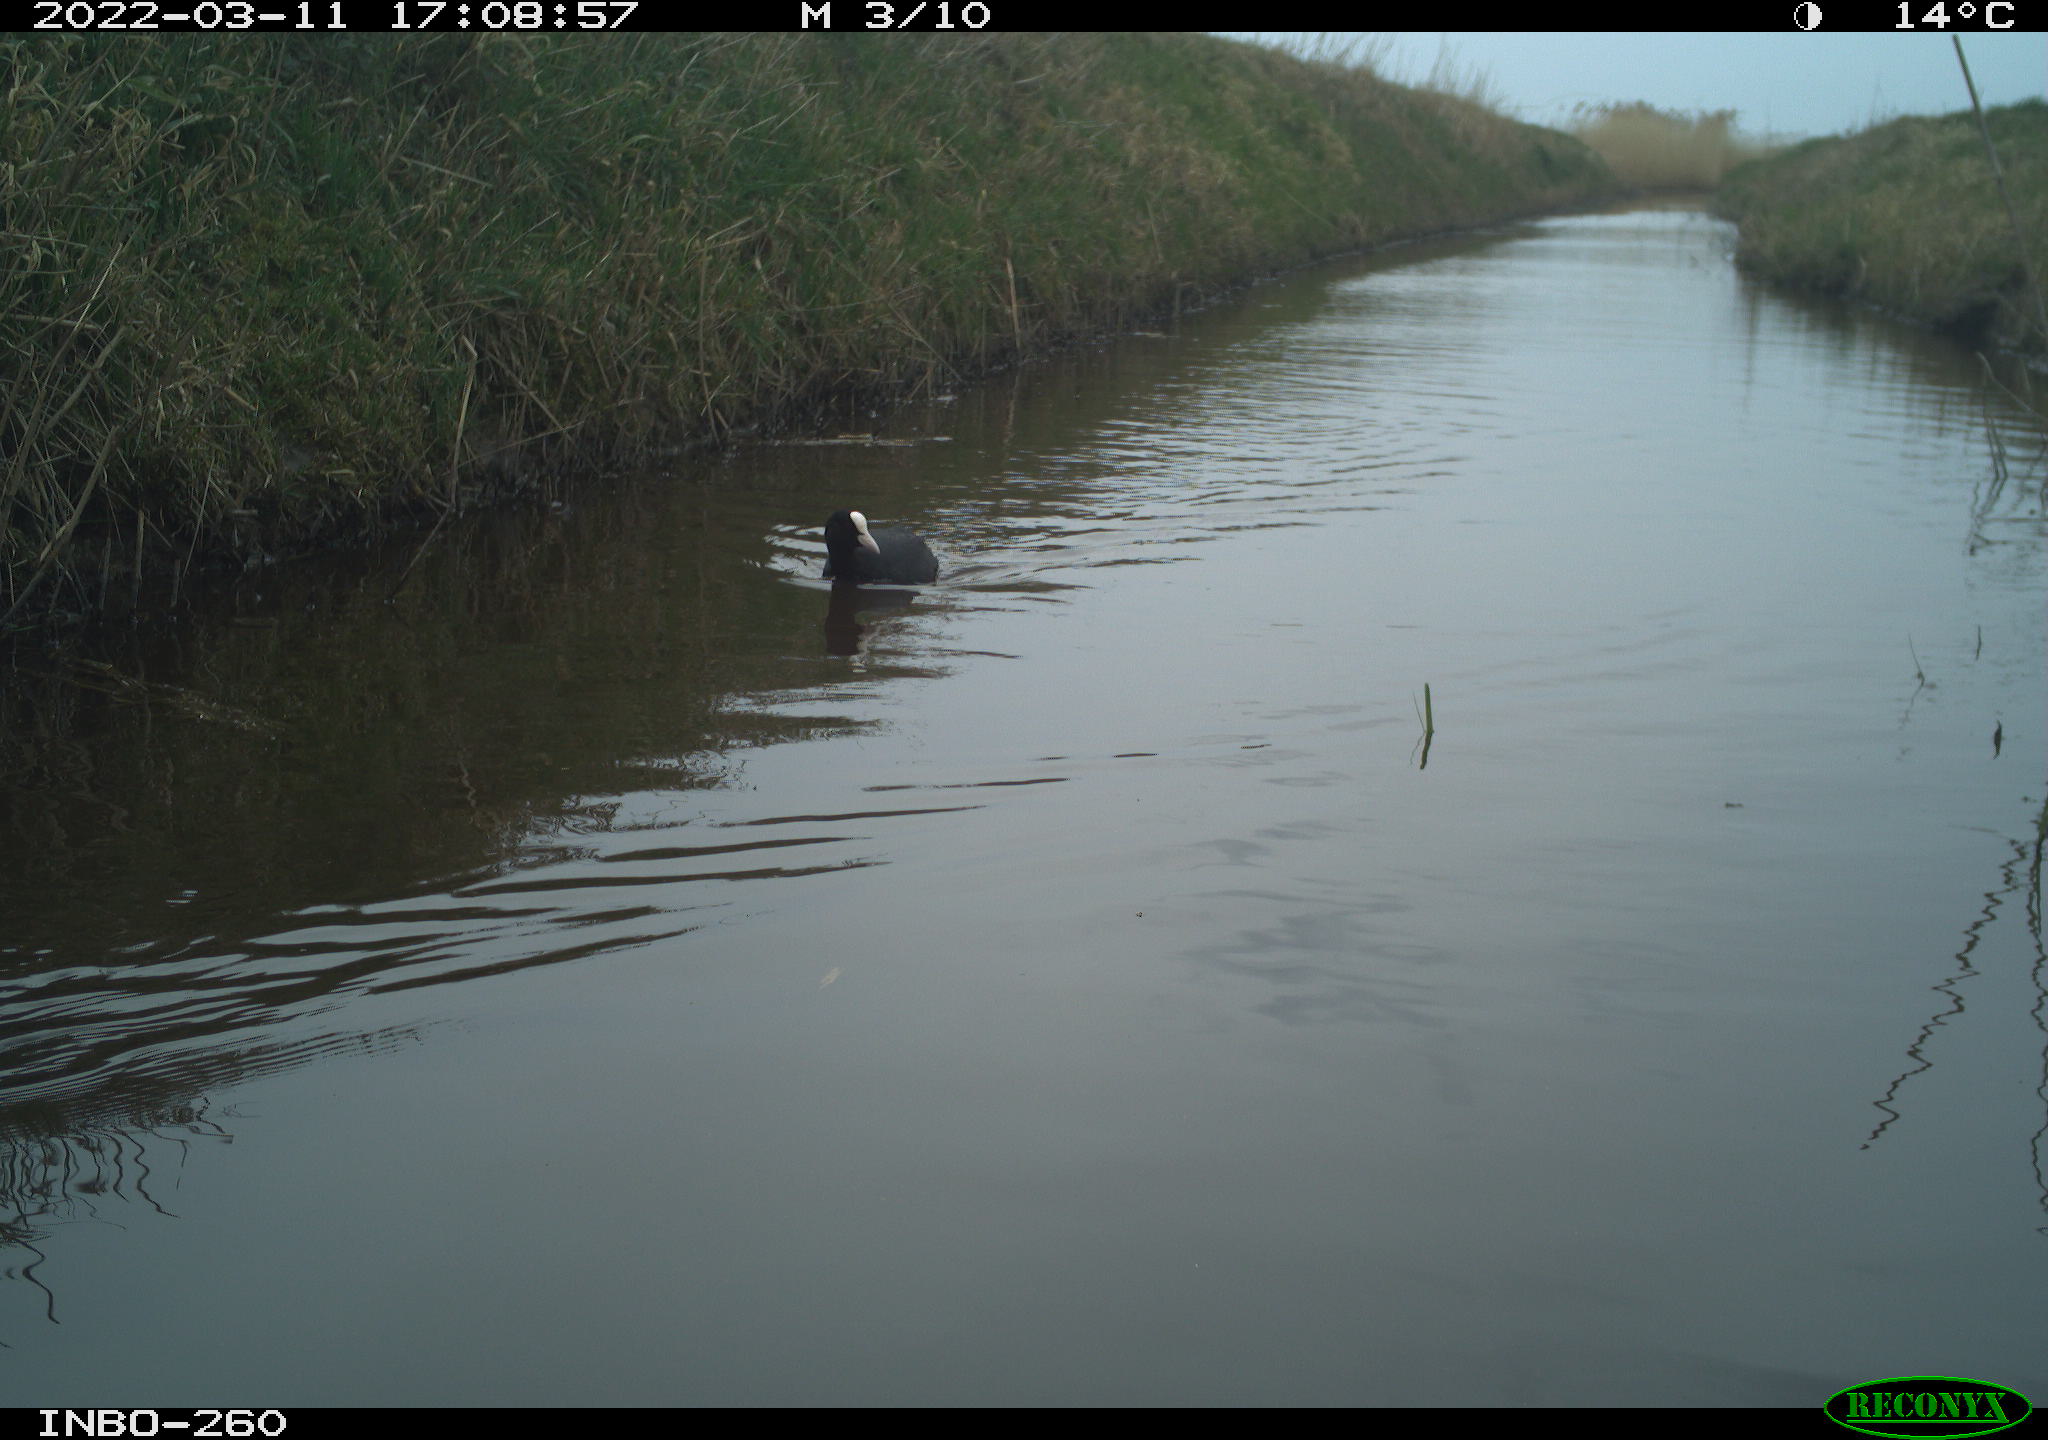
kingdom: Animalia
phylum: Chordata
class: Aves
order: Gruiformes
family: Rallidae
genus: Fulica
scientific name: Fulica atra
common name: Eurasian coot
